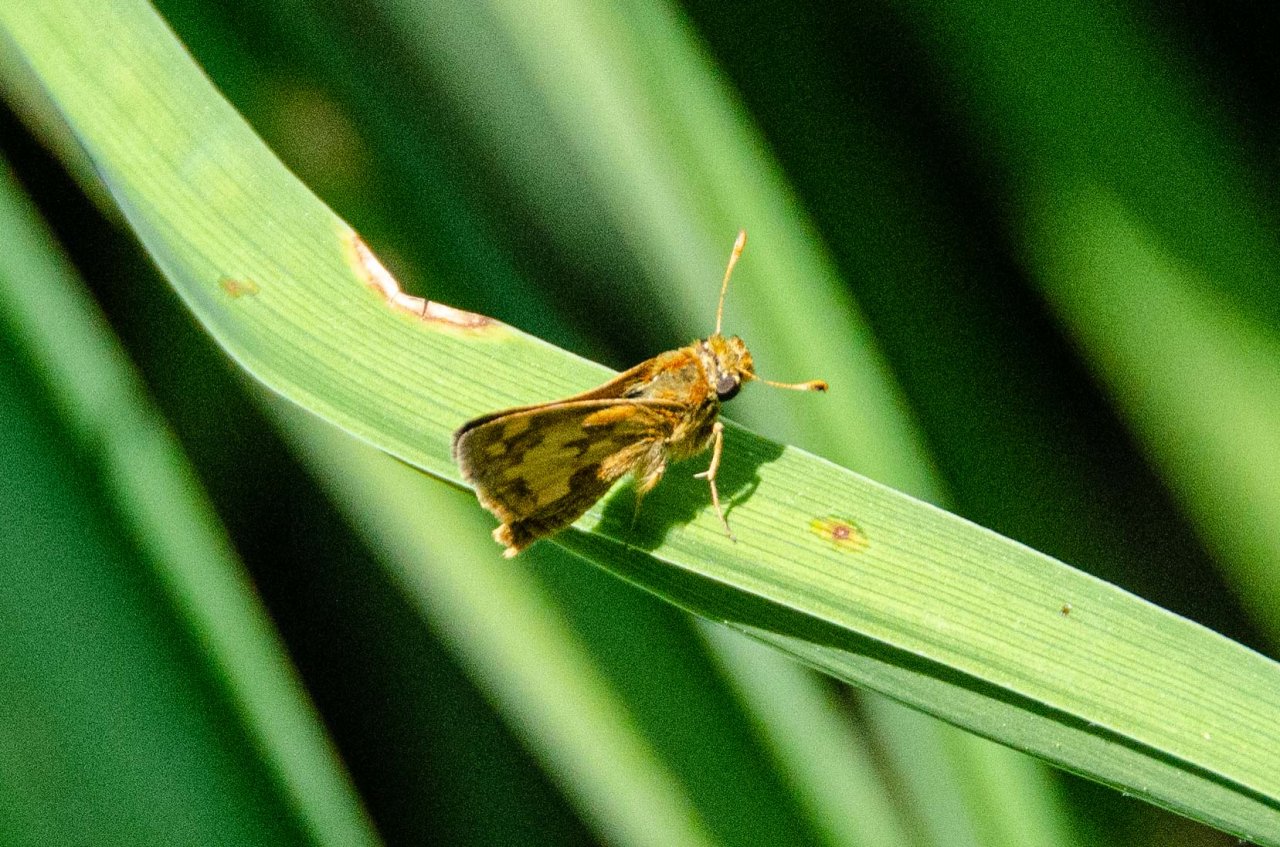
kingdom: Animalia
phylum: Arthropoda
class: Insecta
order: Lepidoptera
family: Hesperiidae
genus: Polites
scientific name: Polites coras
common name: Peck's Skipper
